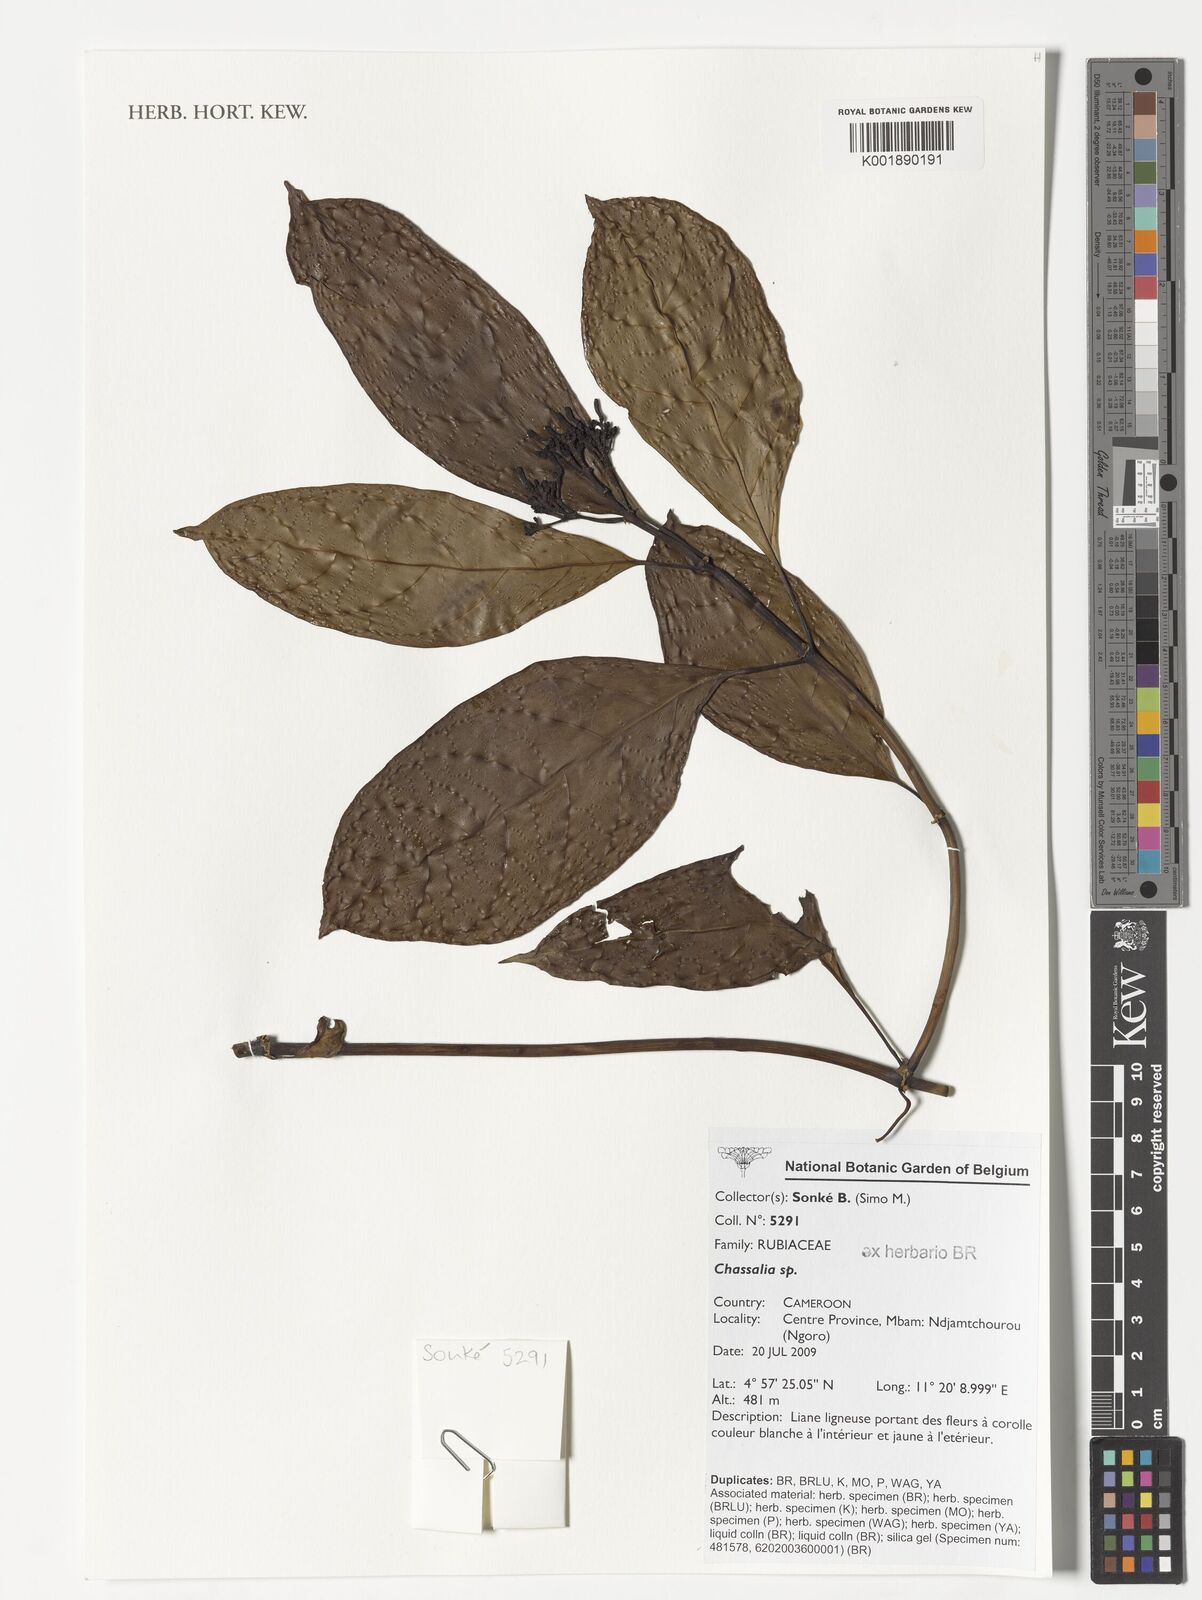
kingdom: Plantae
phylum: Tracheophyta
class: Magnoliopsida
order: Gentianales
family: Rubiaceae
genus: Chassalia
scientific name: Chassalia
